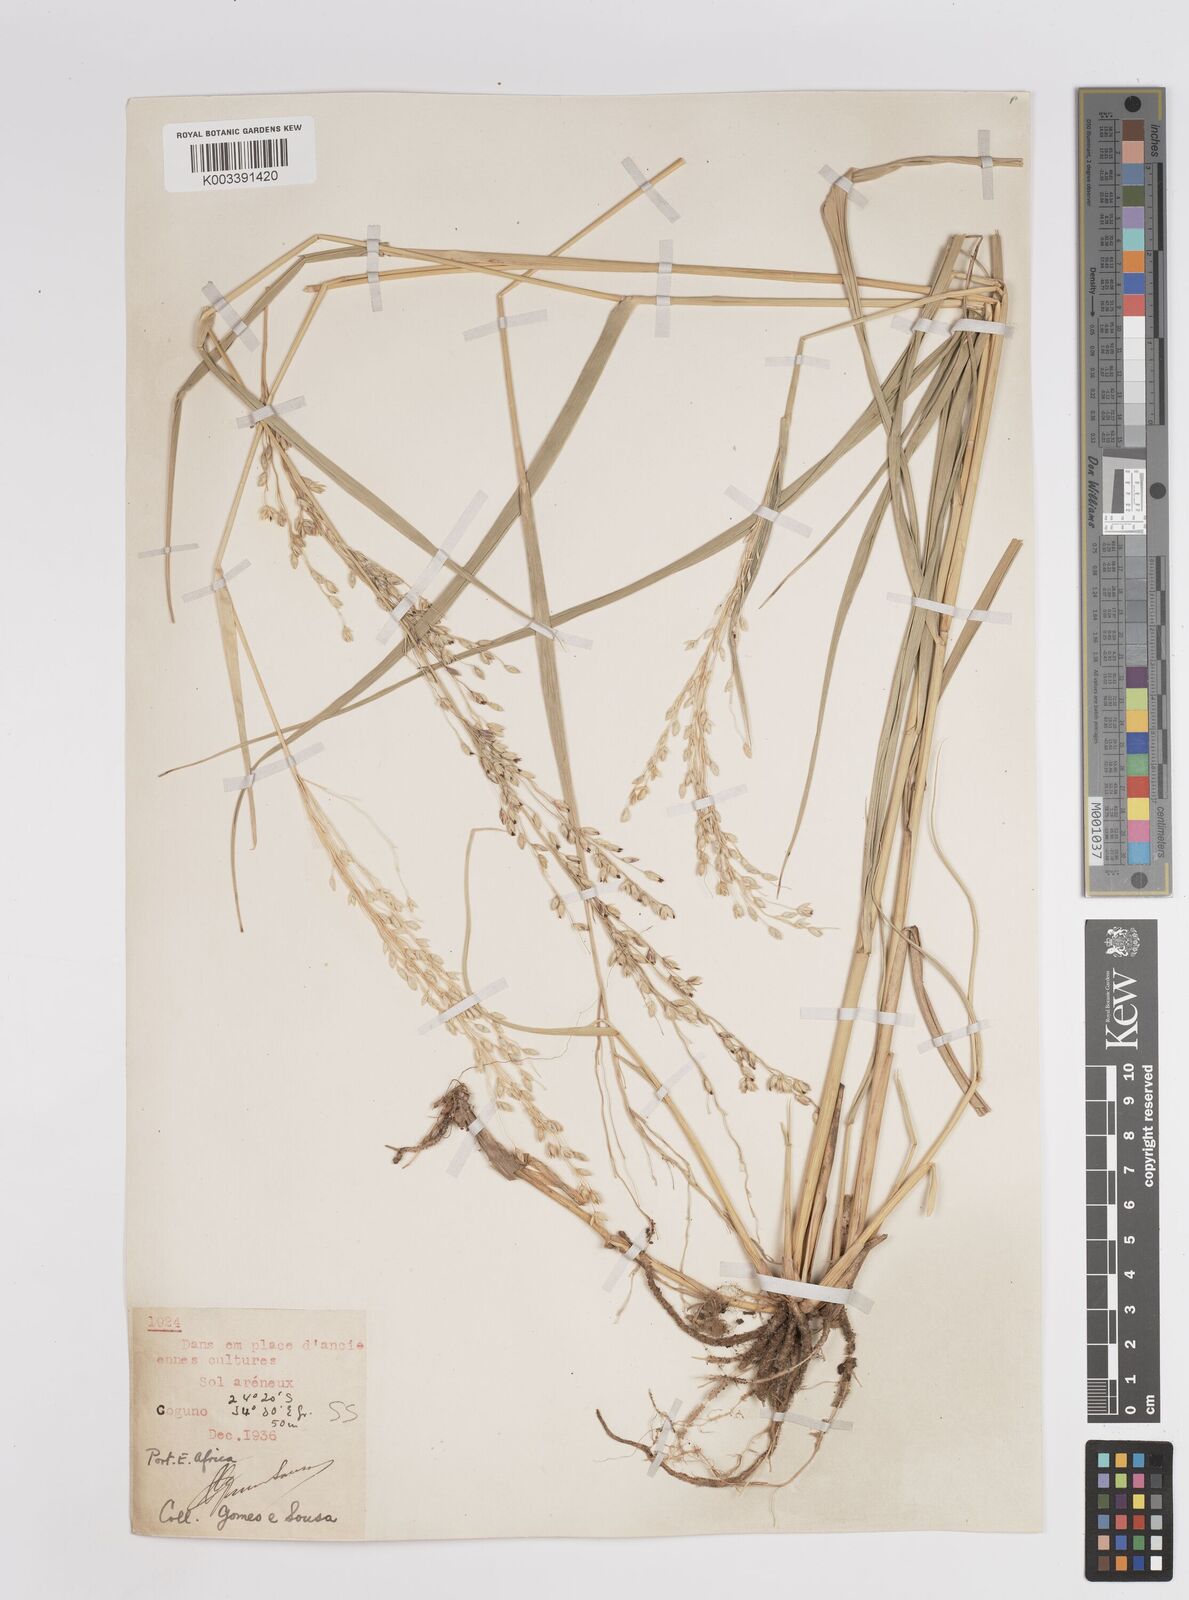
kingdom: Plantae
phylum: Tracheophyta
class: Liliopsida
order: Poales
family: Poaceae
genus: Panicum
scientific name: Panicum deustum
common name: Reed panicum
